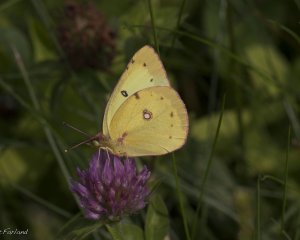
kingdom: Animalia
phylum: Arthropoda
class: Insecta
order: Lepidoptera
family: Pieridae
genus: Colias
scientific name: Colias eurytheme
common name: Orange Sulphur
